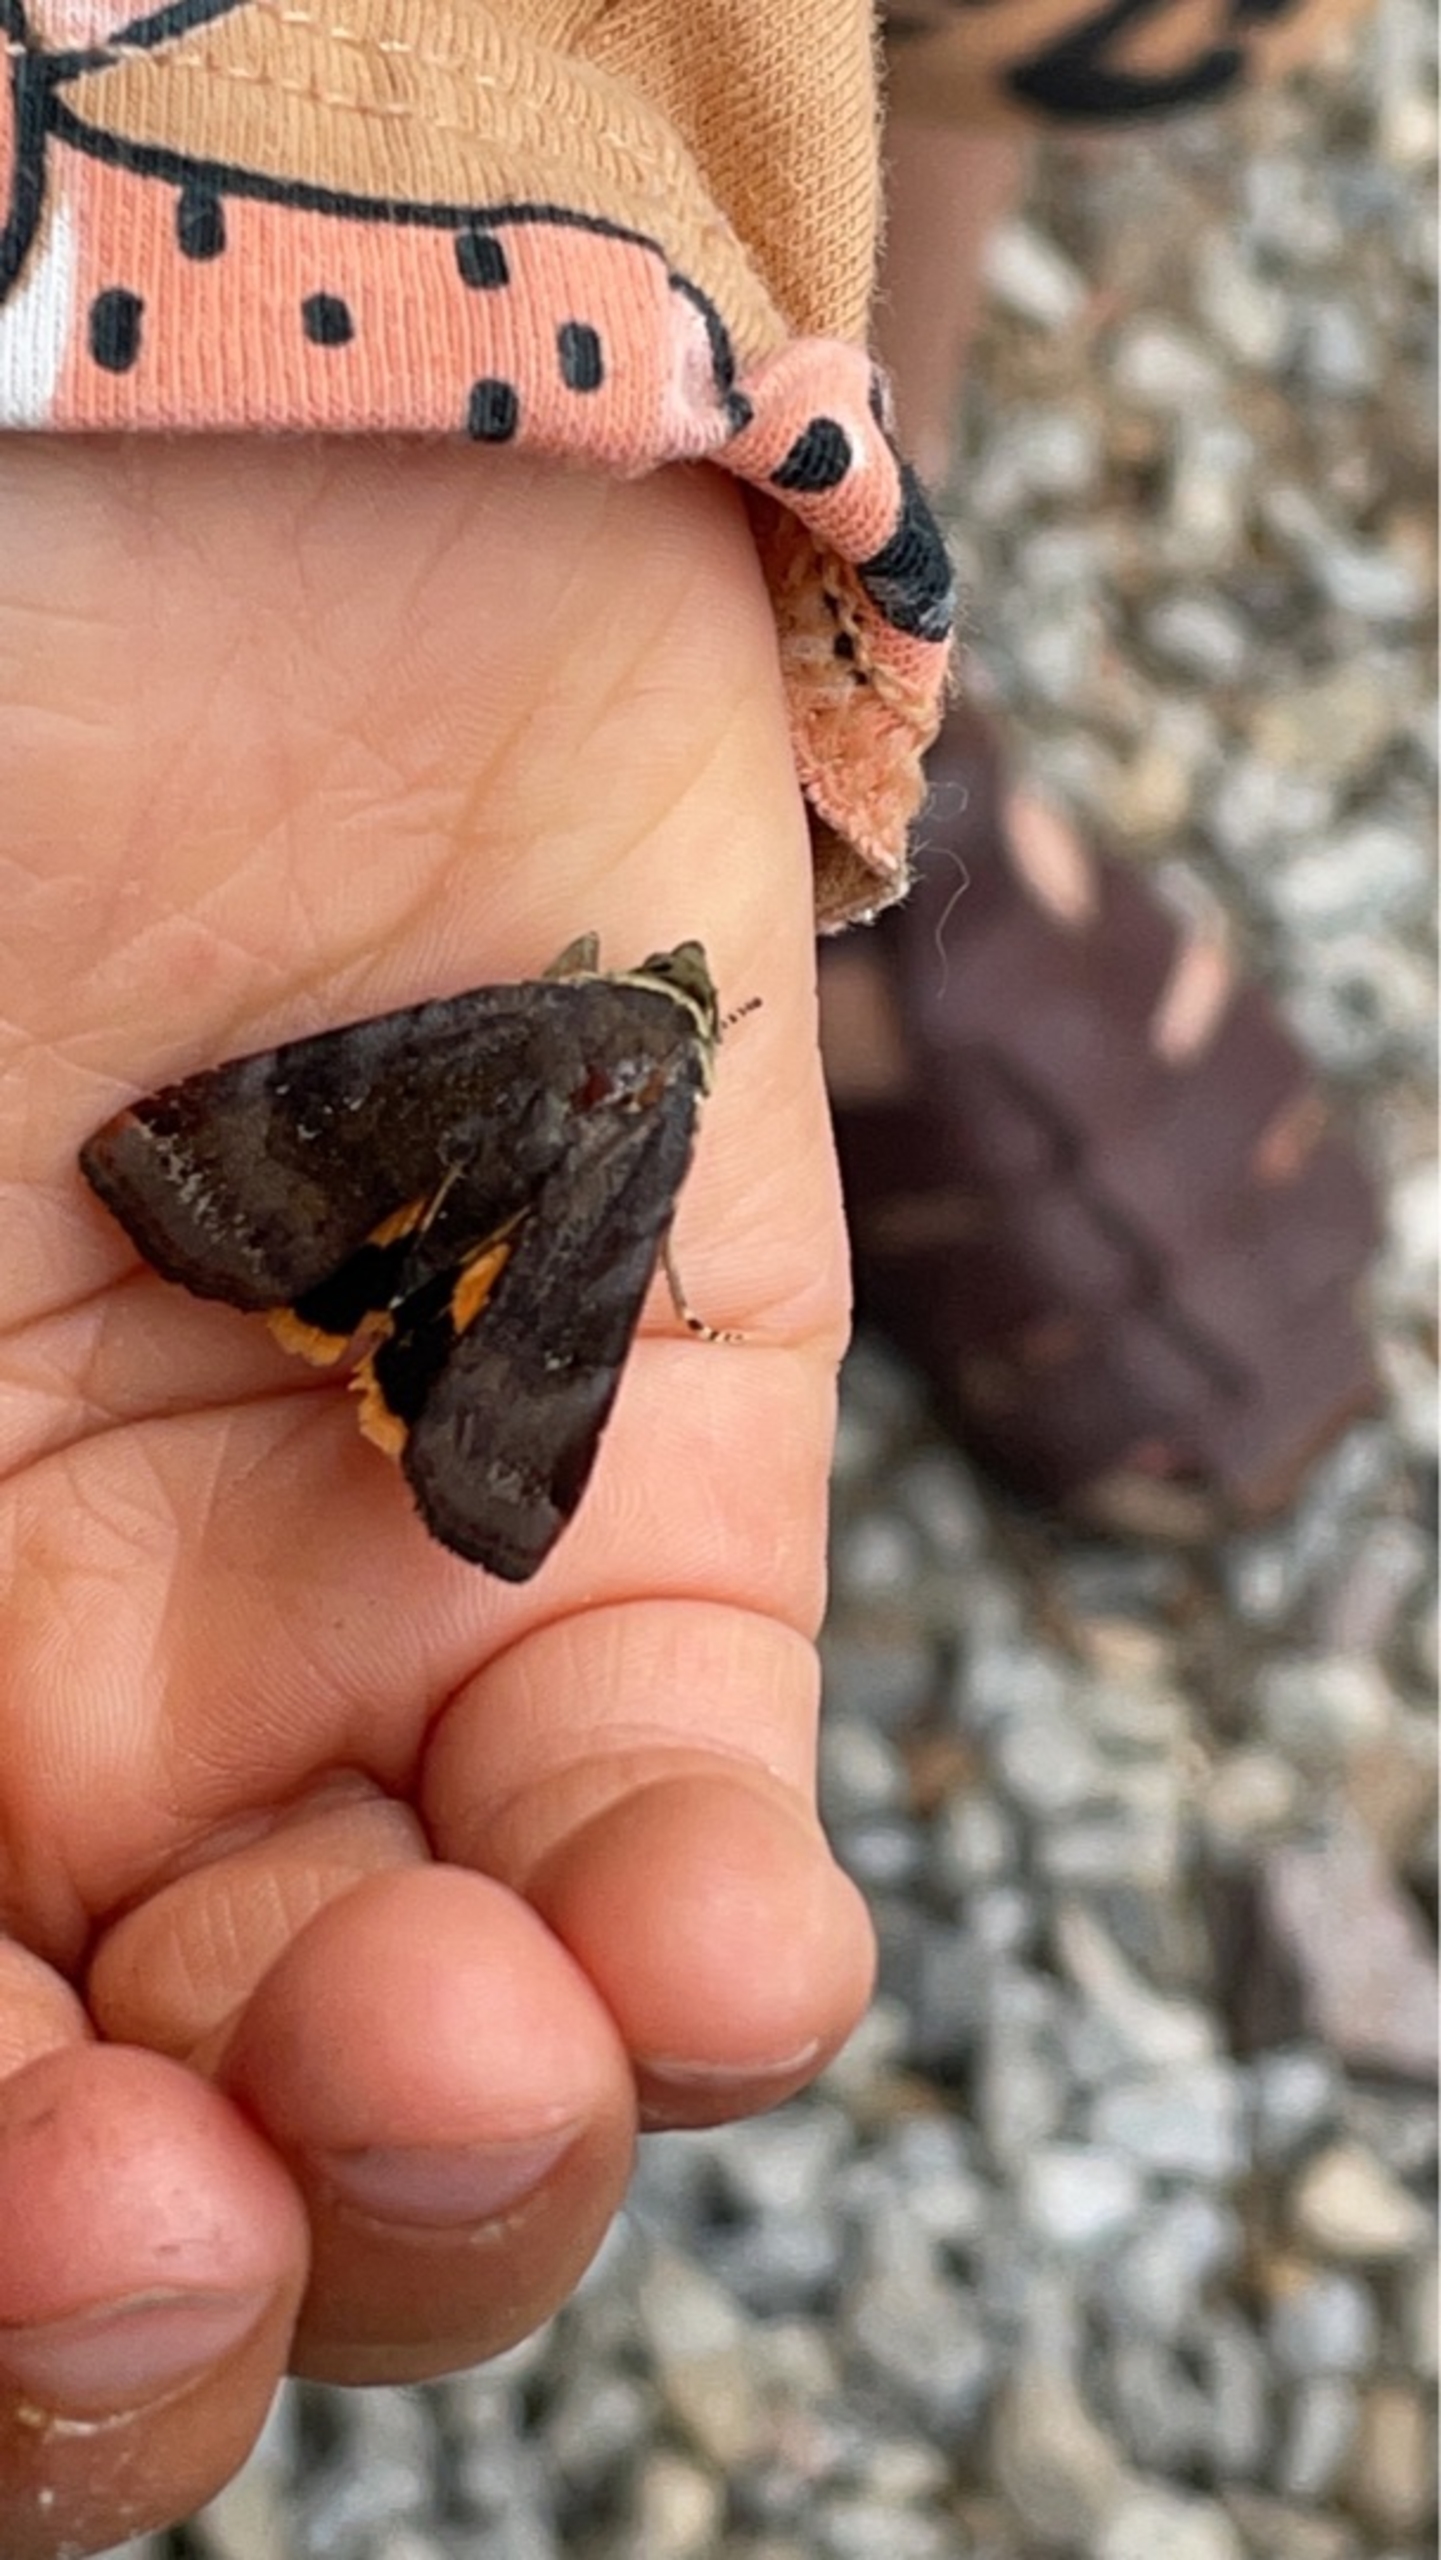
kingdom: Animalia
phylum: Arthropoda
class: Insecta
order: Lepidoptera
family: Noctuidae
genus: Noctua
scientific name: Noctua janthe
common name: Brunviolet smutugle
